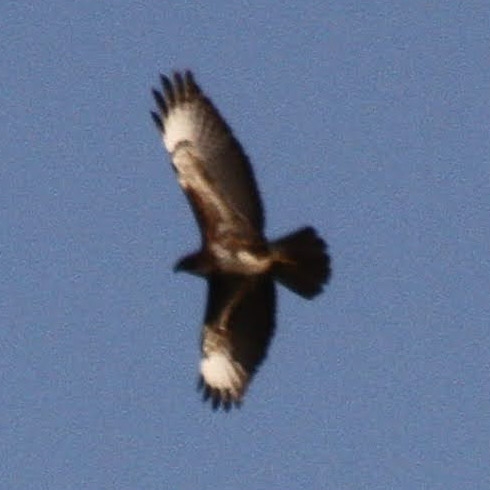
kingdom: Animalia
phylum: Chordata
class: Aves
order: Accipitriformes
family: Accipitridae
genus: Buteo
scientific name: Buteo buteo
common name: Musvåge
